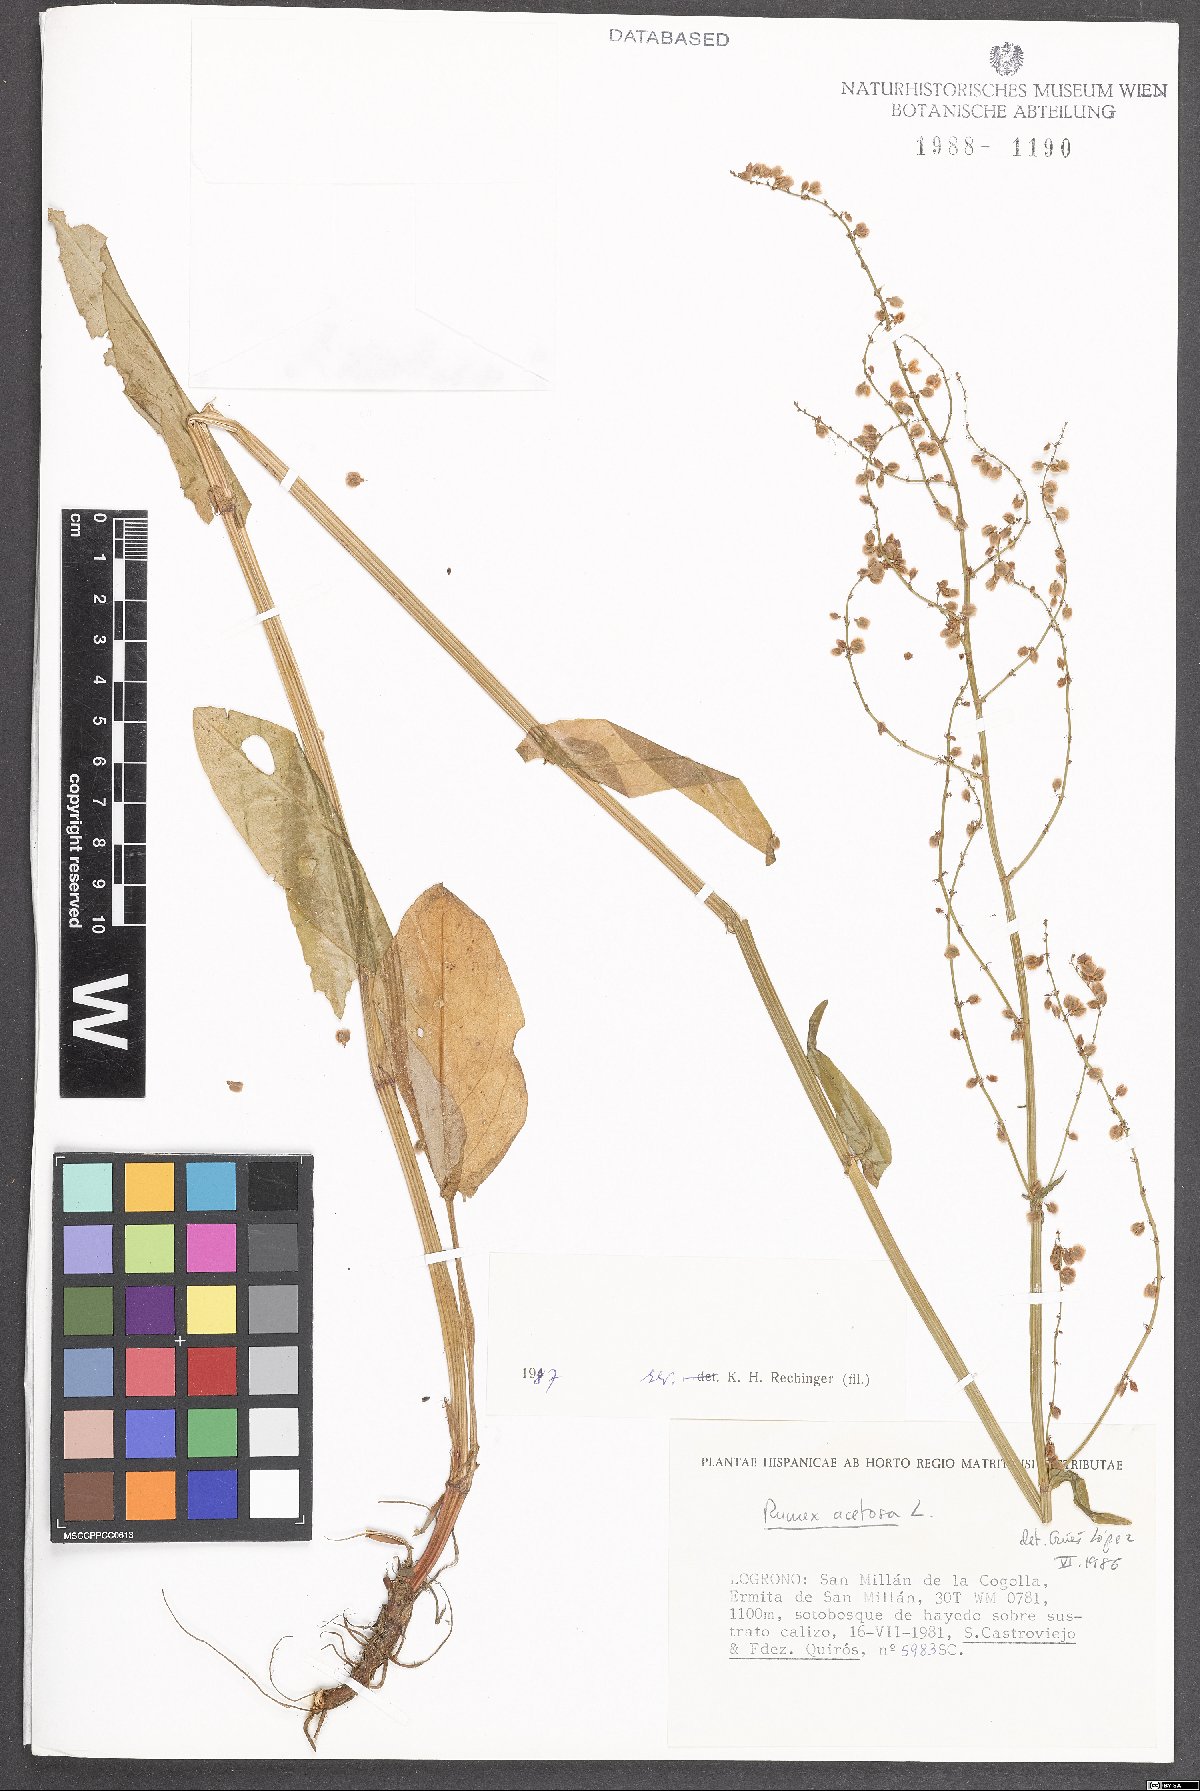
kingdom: Plantae
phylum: Tracheophyta
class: Magnoliopsida
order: Caryophyllales
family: Polygonaceae
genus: Rumex
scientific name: Rumex acetosa
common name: Garden sorrel
